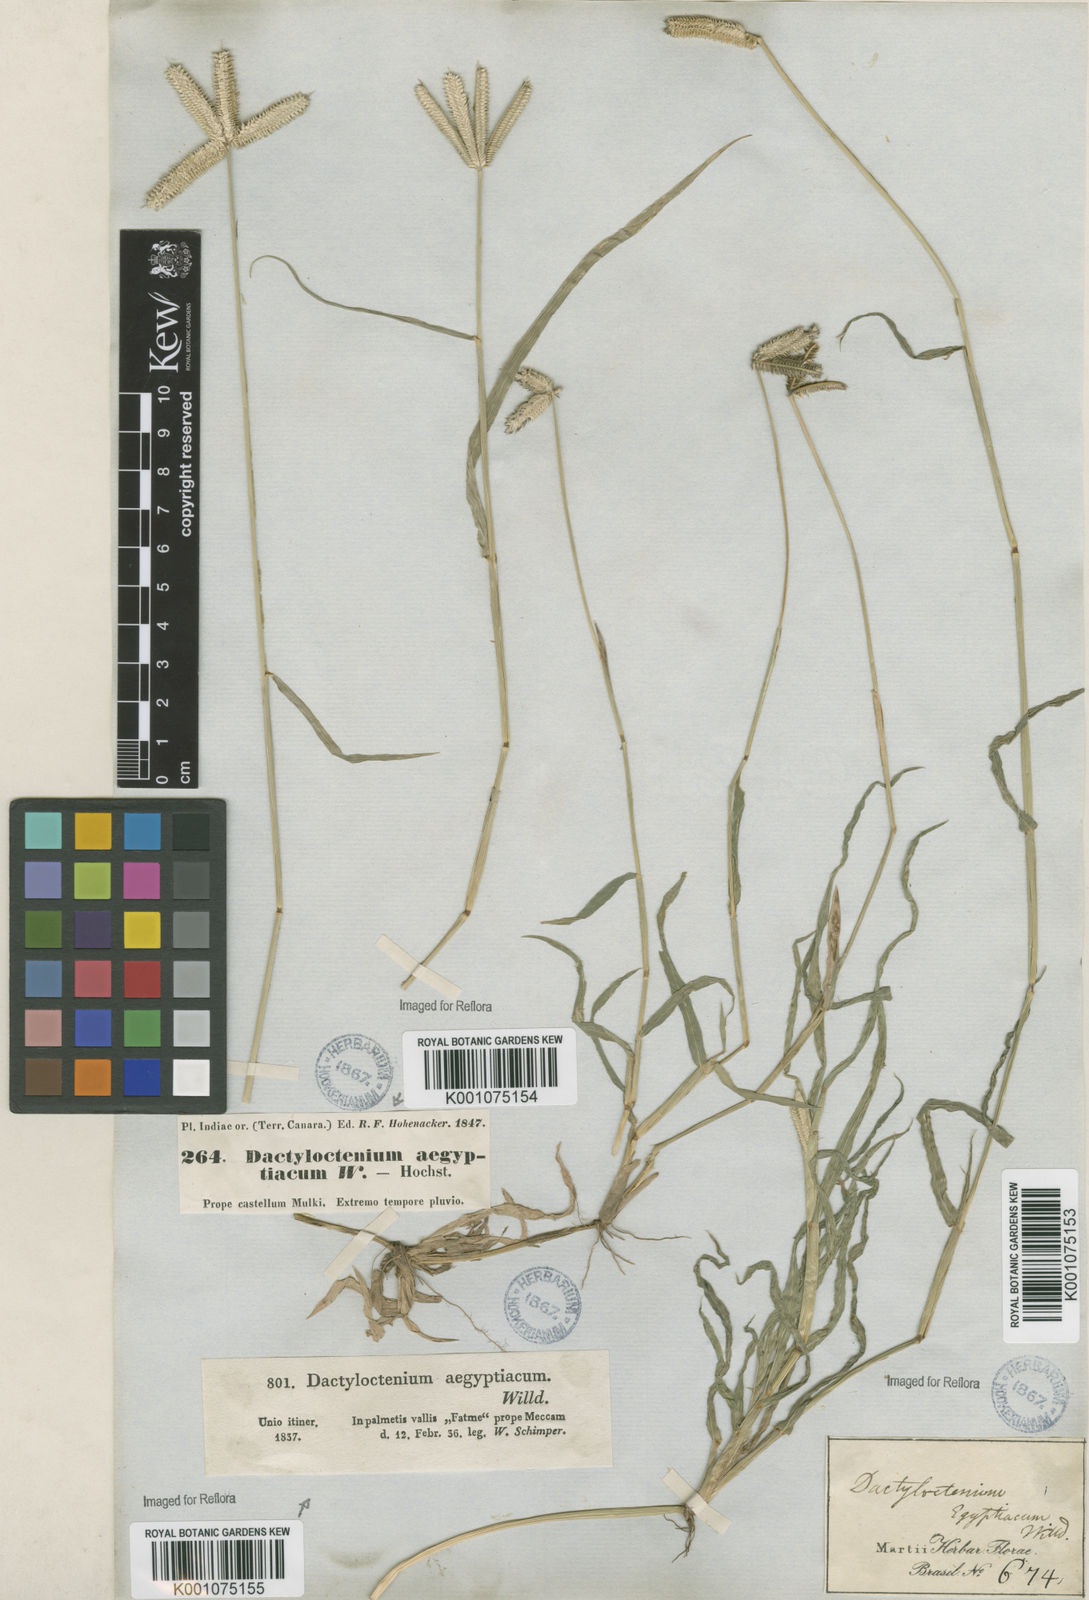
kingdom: Plantae
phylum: Tracheophyta
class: Liliopsida
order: Poales
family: Poaceae
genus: Dactyloctenium
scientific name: Dactyloctenium aegyptium
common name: Egyptian grass
